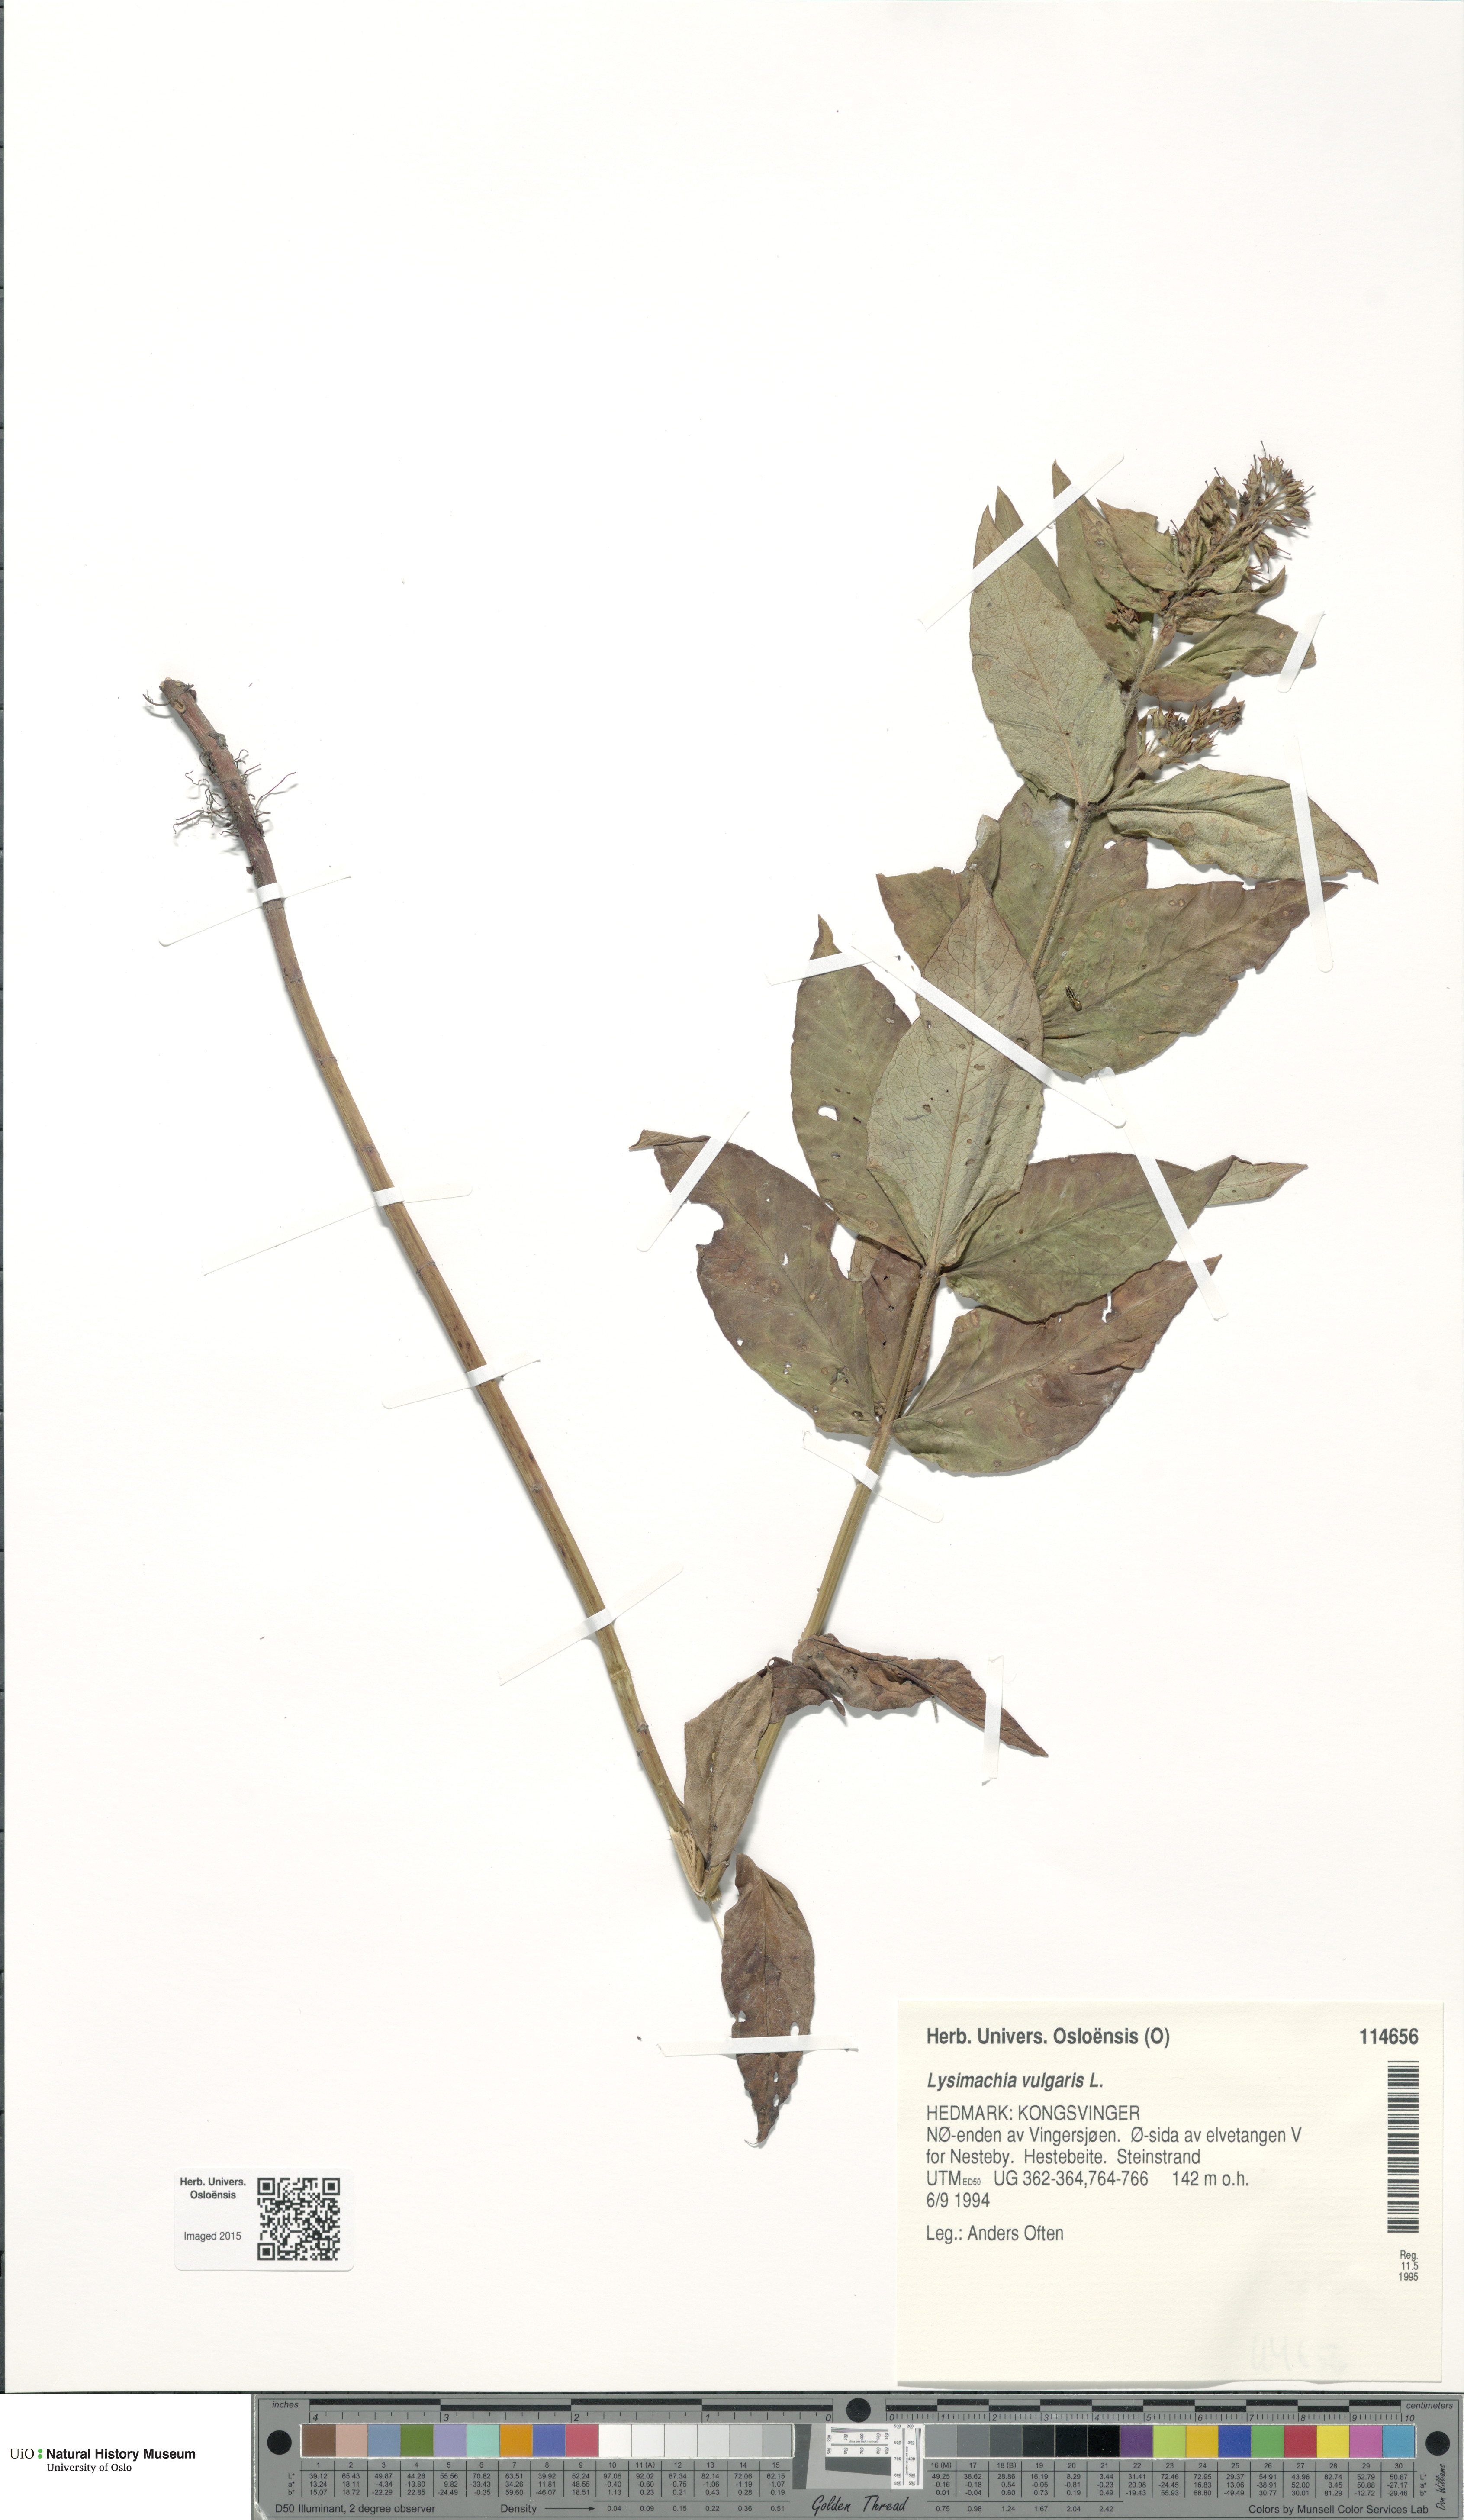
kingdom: Plantae
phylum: Tracheophyta
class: Magnoliopsida
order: Ericales
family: Primulaceae
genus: Lysimachia
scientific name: Lysimachia vulgaris
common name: Yellow loosestrife
